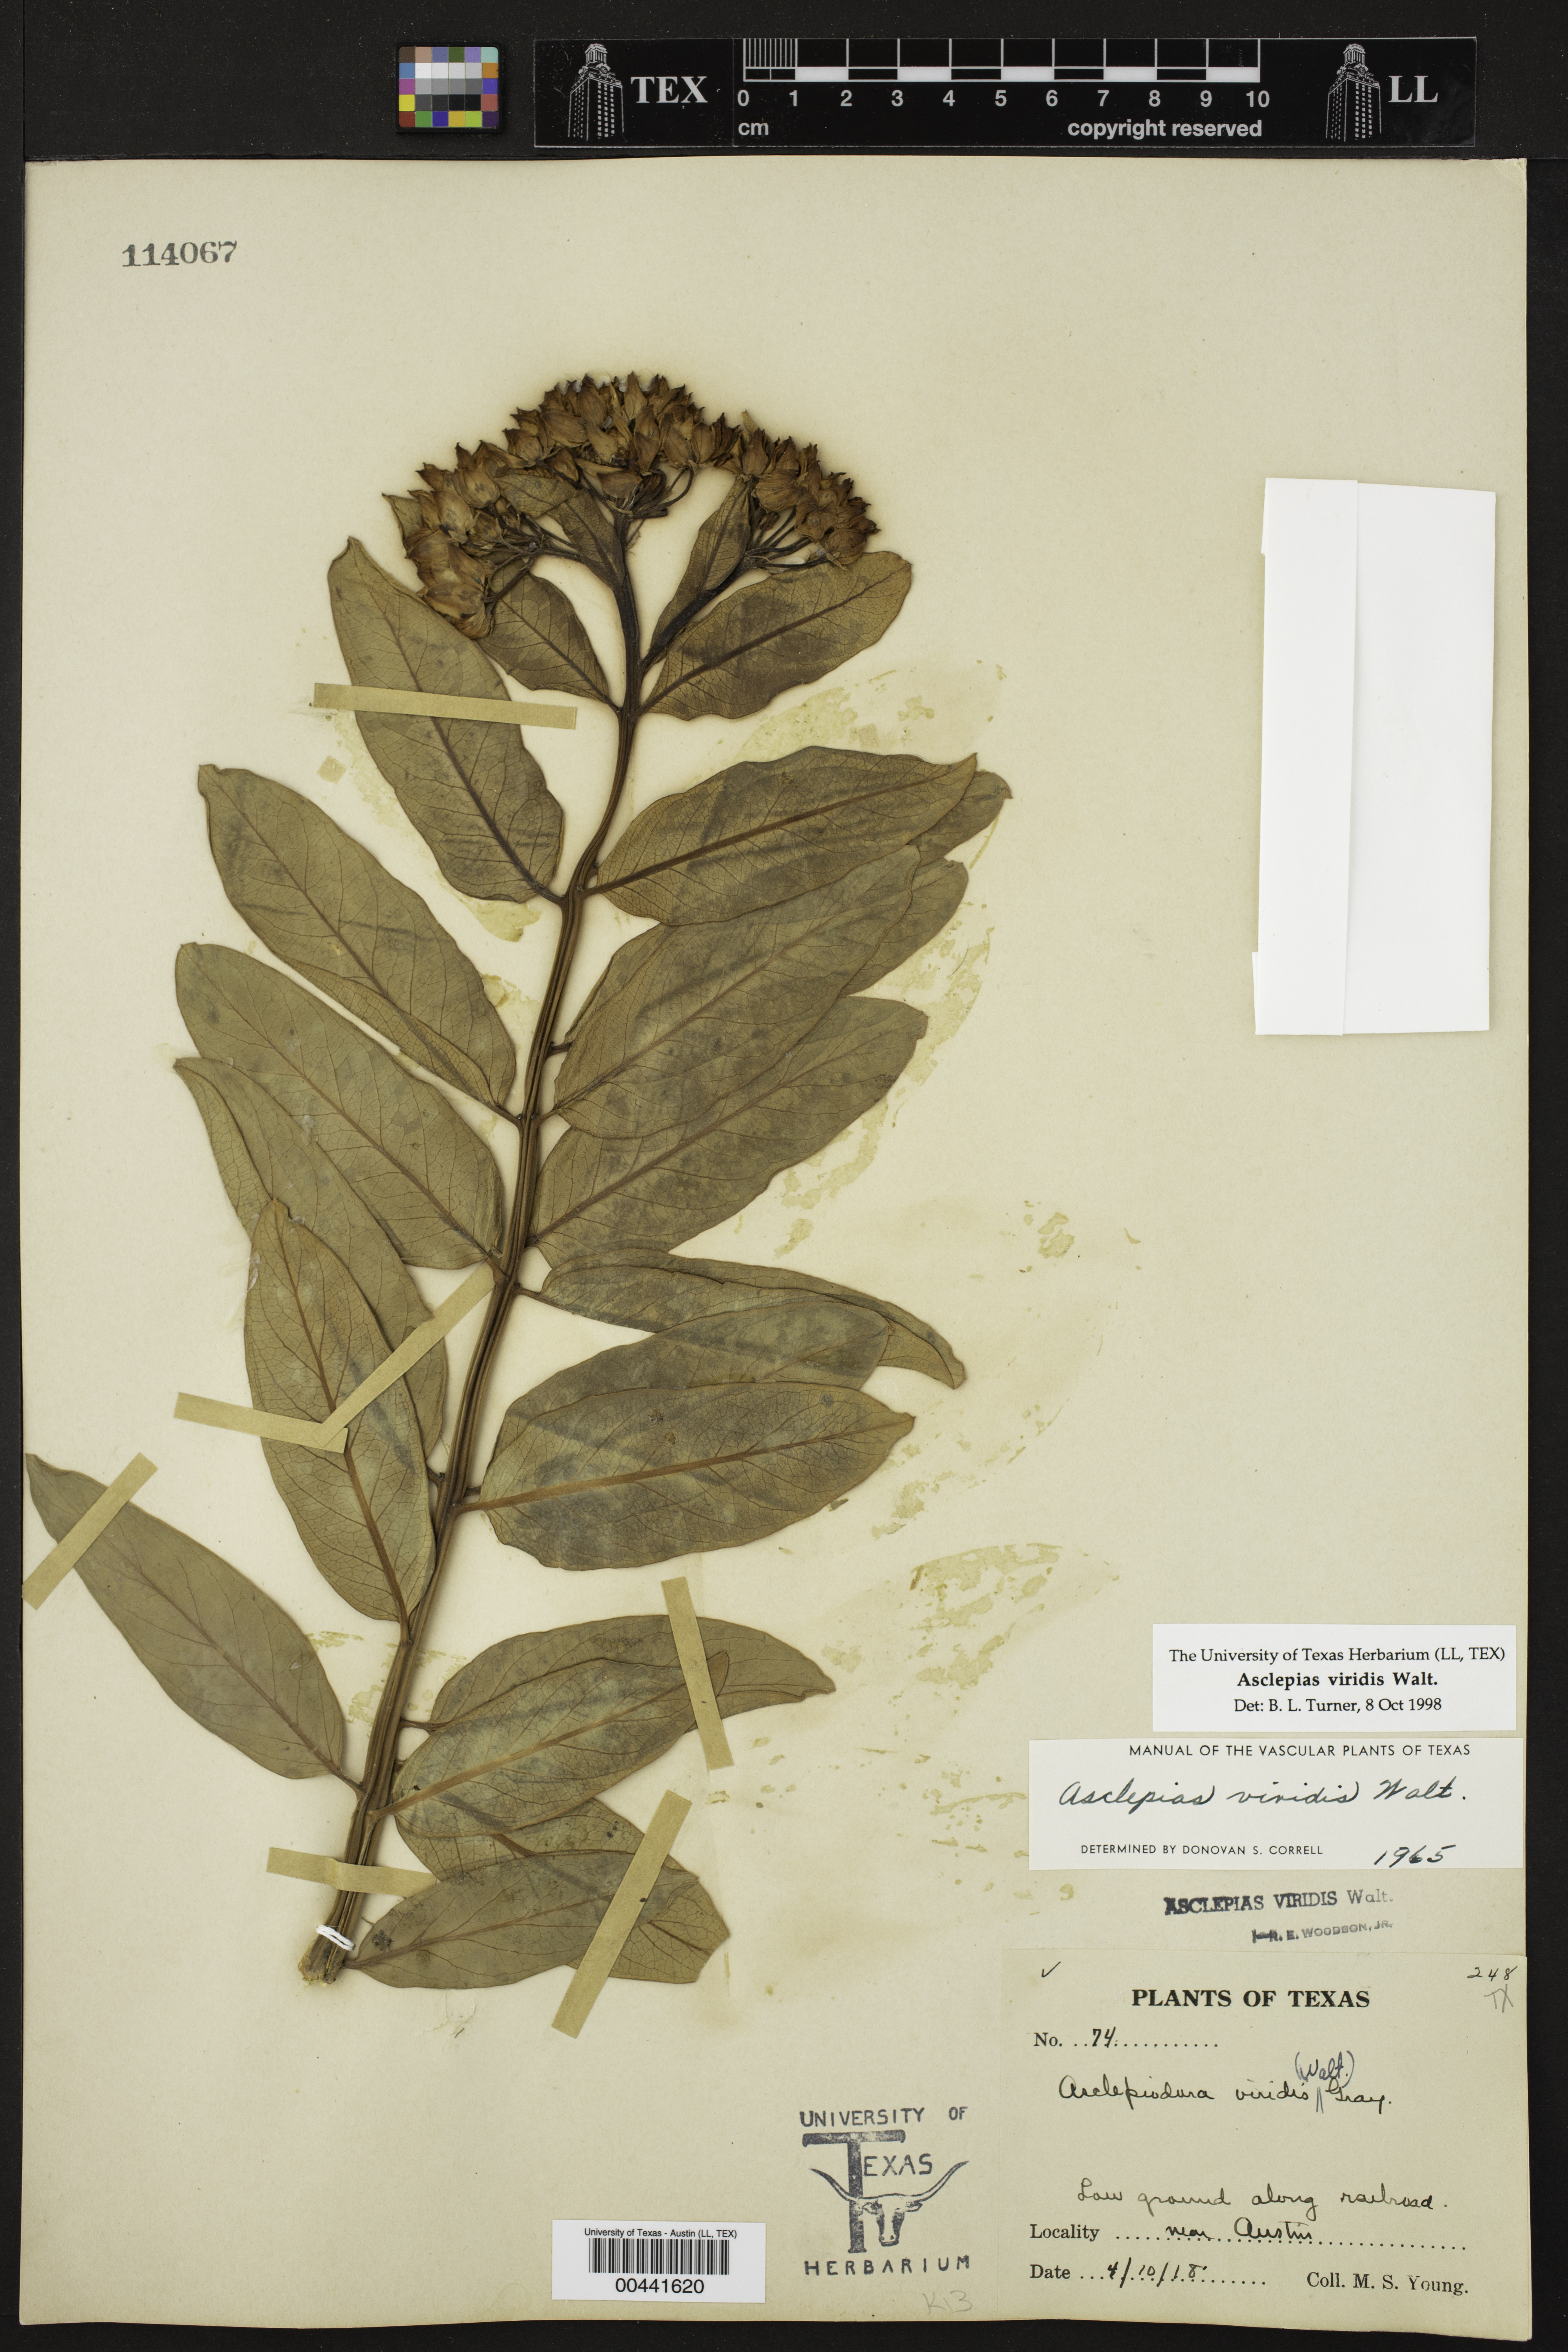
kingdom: Plantae
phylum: Tracheophyta
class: Magnoliopsida
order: Gentianales
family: Apocynaceae
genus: Asclepias
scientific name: Asclepias viridis
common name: Antelope-horns
